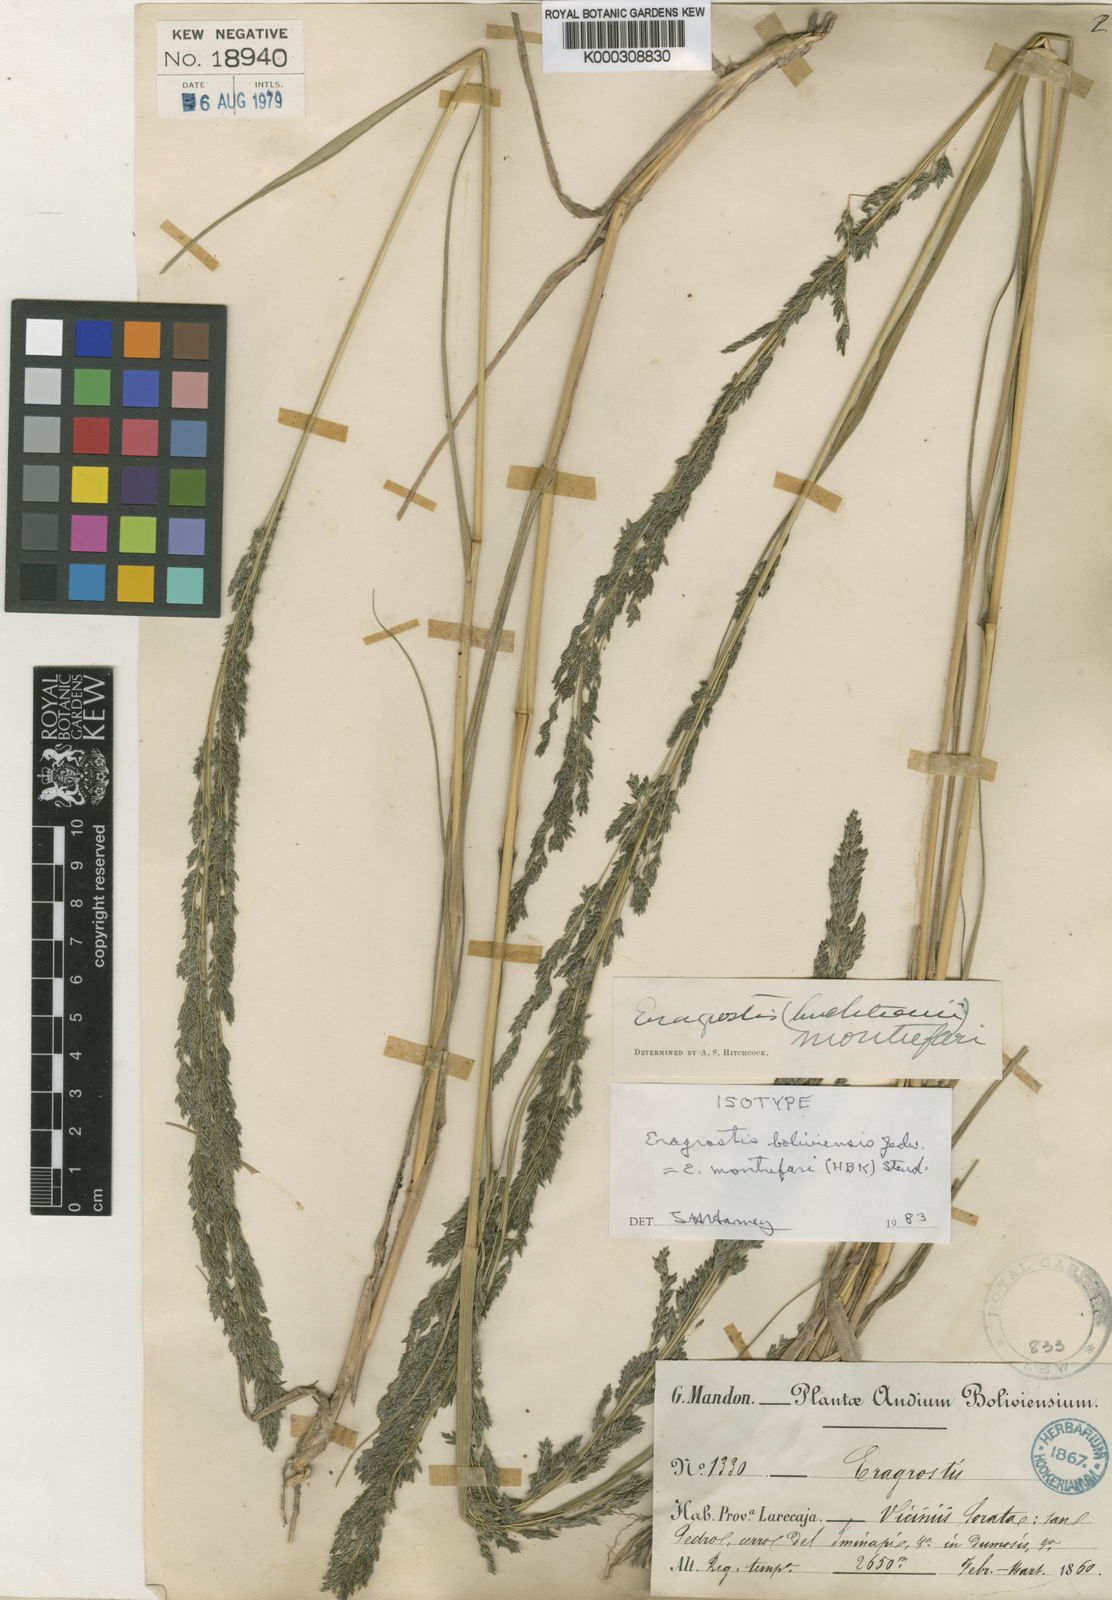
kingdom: Plantae
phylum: Tracheophyta
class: Liliopsida
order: Poales
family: Poaceae
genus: Eragrostis
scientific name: Eragrostis pastoensis
